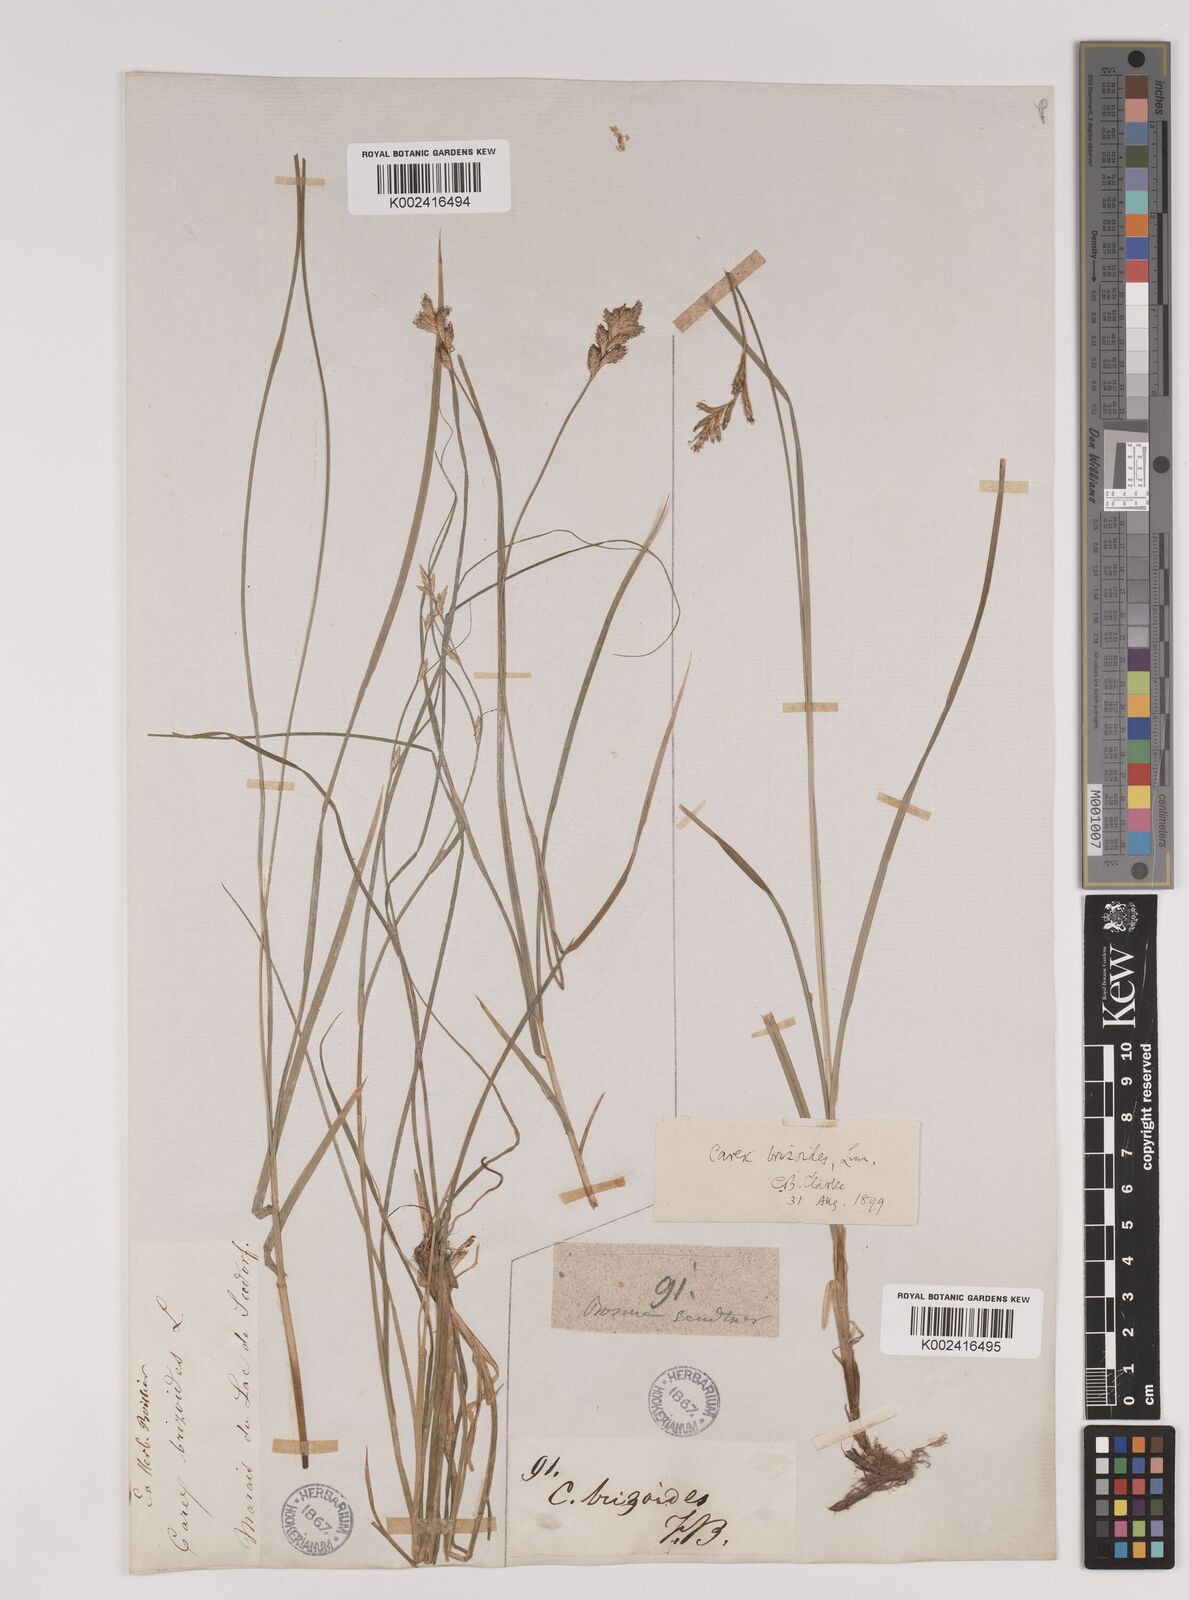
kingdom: Plantae
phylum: Tracheophyta
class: Liliopsida
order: Poales
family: Cyperaceae
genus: Carex
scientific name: Carex brizoides
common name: Quaking-grass sedge
